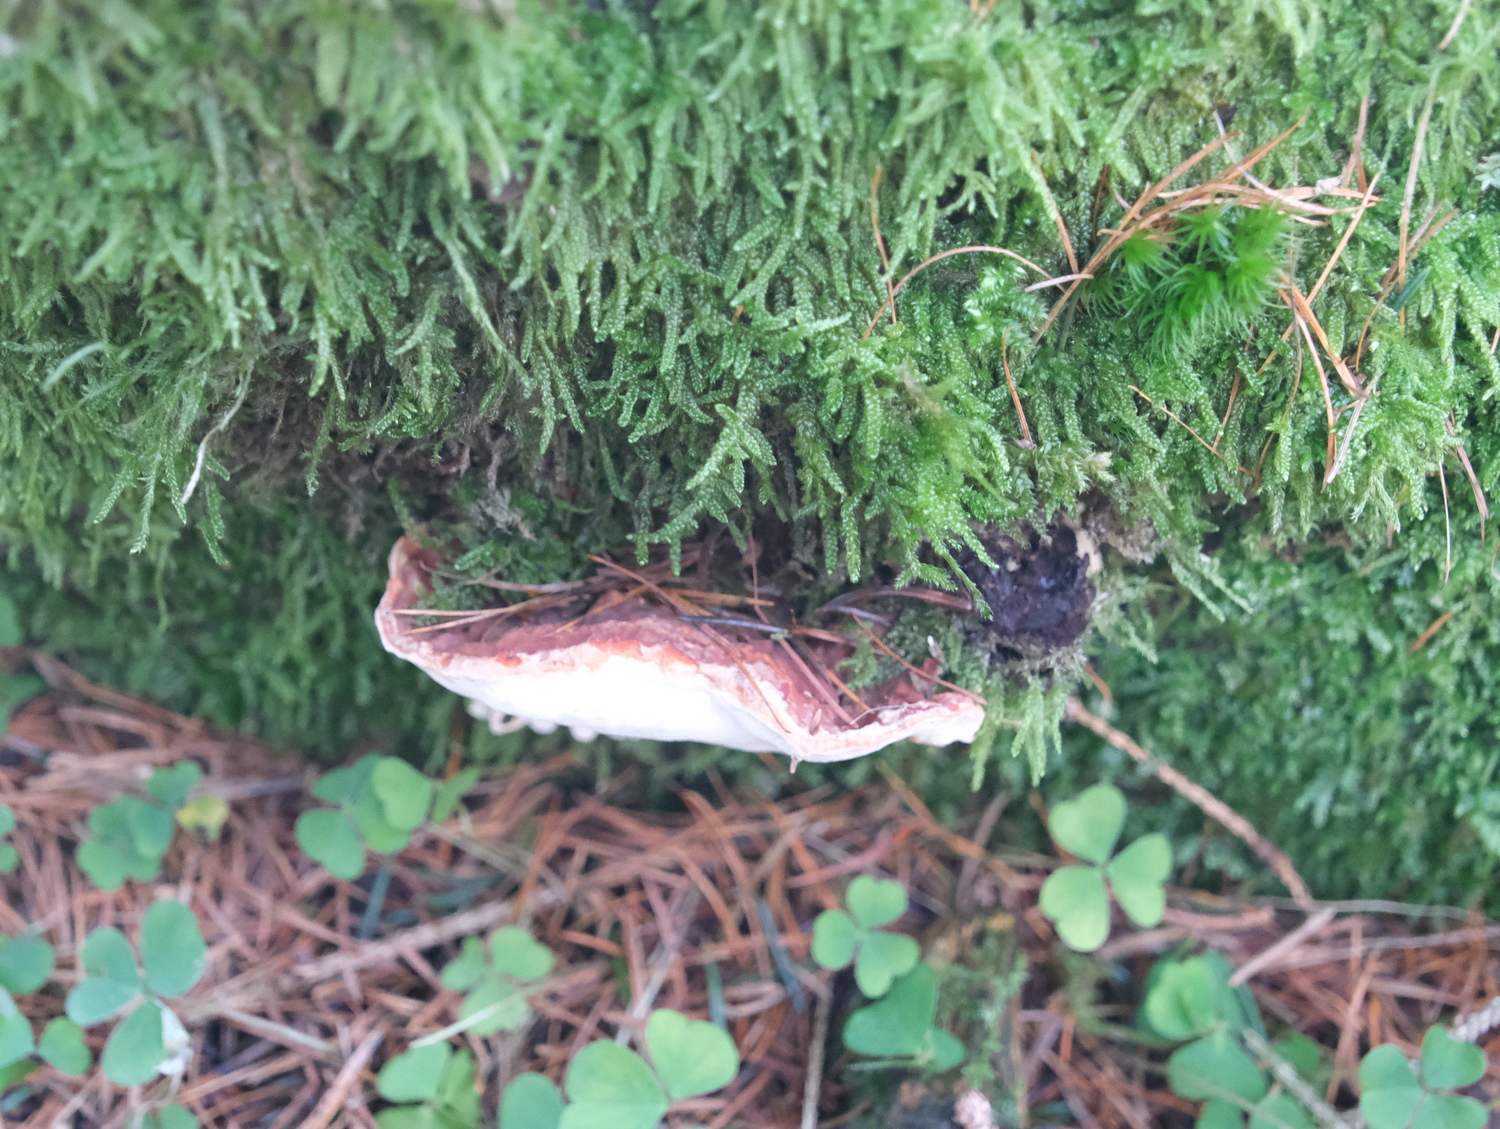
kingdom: Fungi
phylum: Basidiomycota
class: Agaricomycetes
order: Russulales
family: Bondarzewiaceae
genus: Heterobasidion
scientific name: Heterobasidion annosum
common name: almindelig rodfordærver
